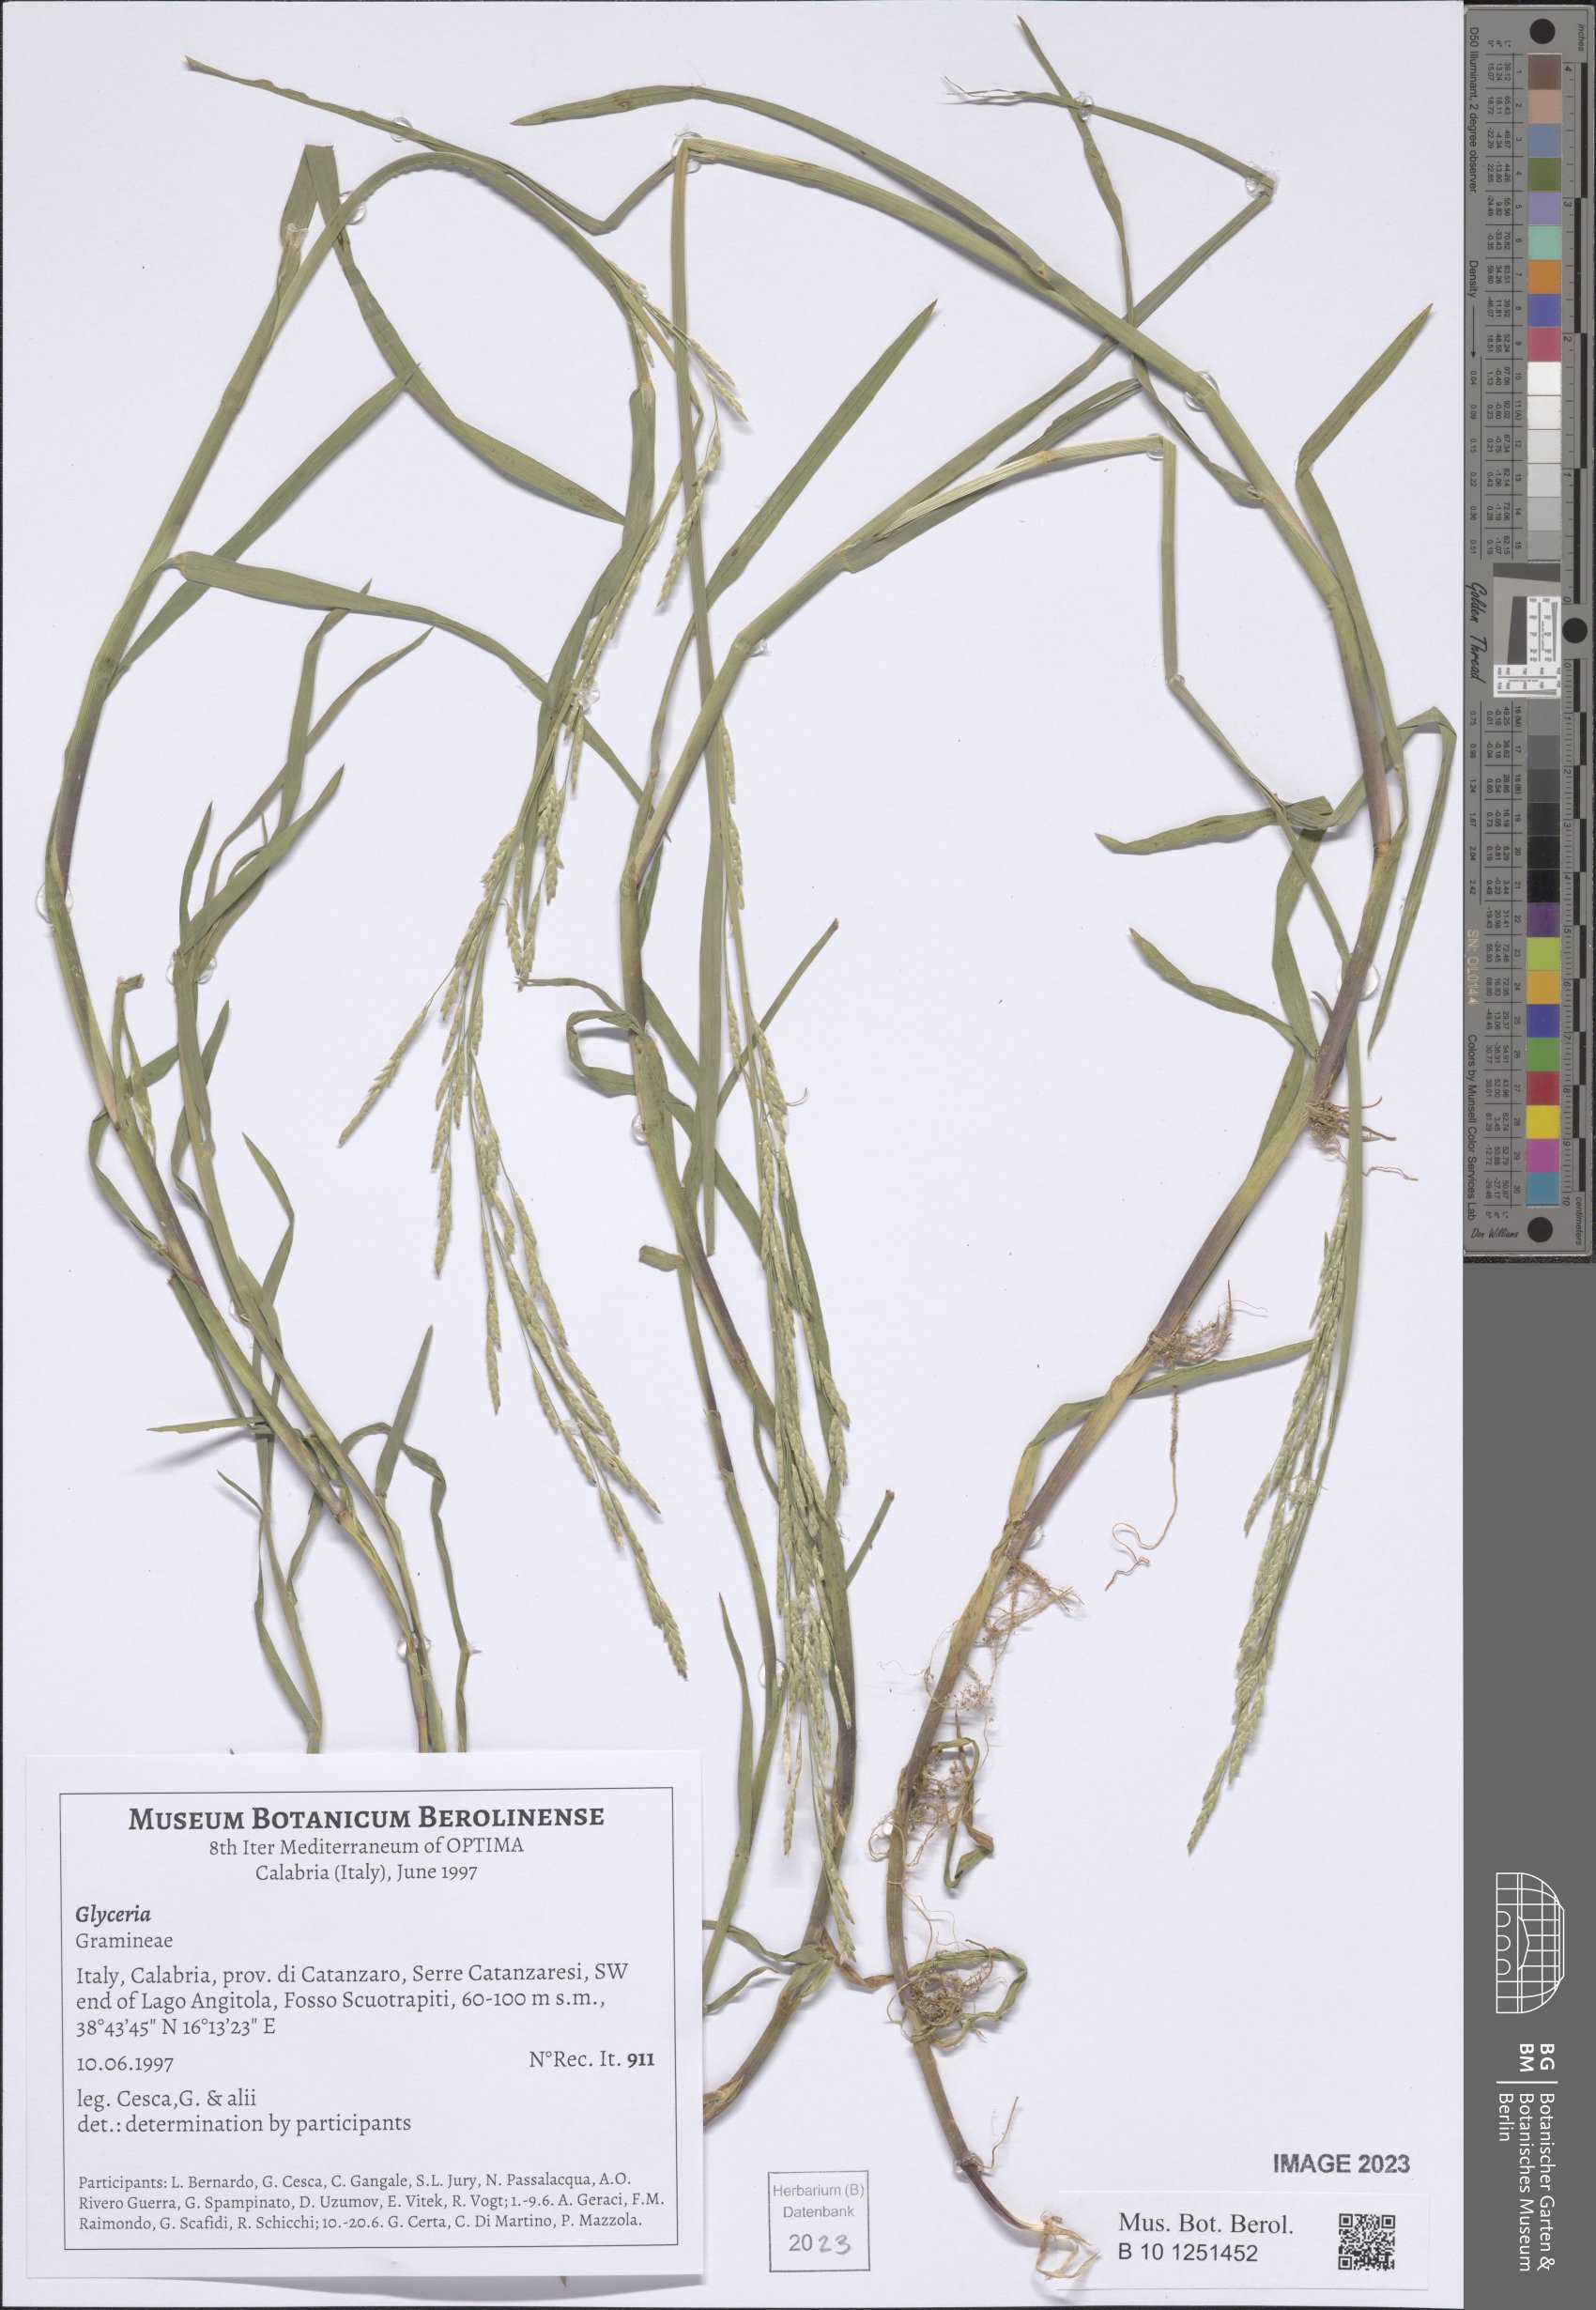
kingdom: Plantae
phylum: Tracheophyta
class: Liliopsida
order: Poales
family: Poaceae
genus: Glyceria
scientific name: Glyceria
